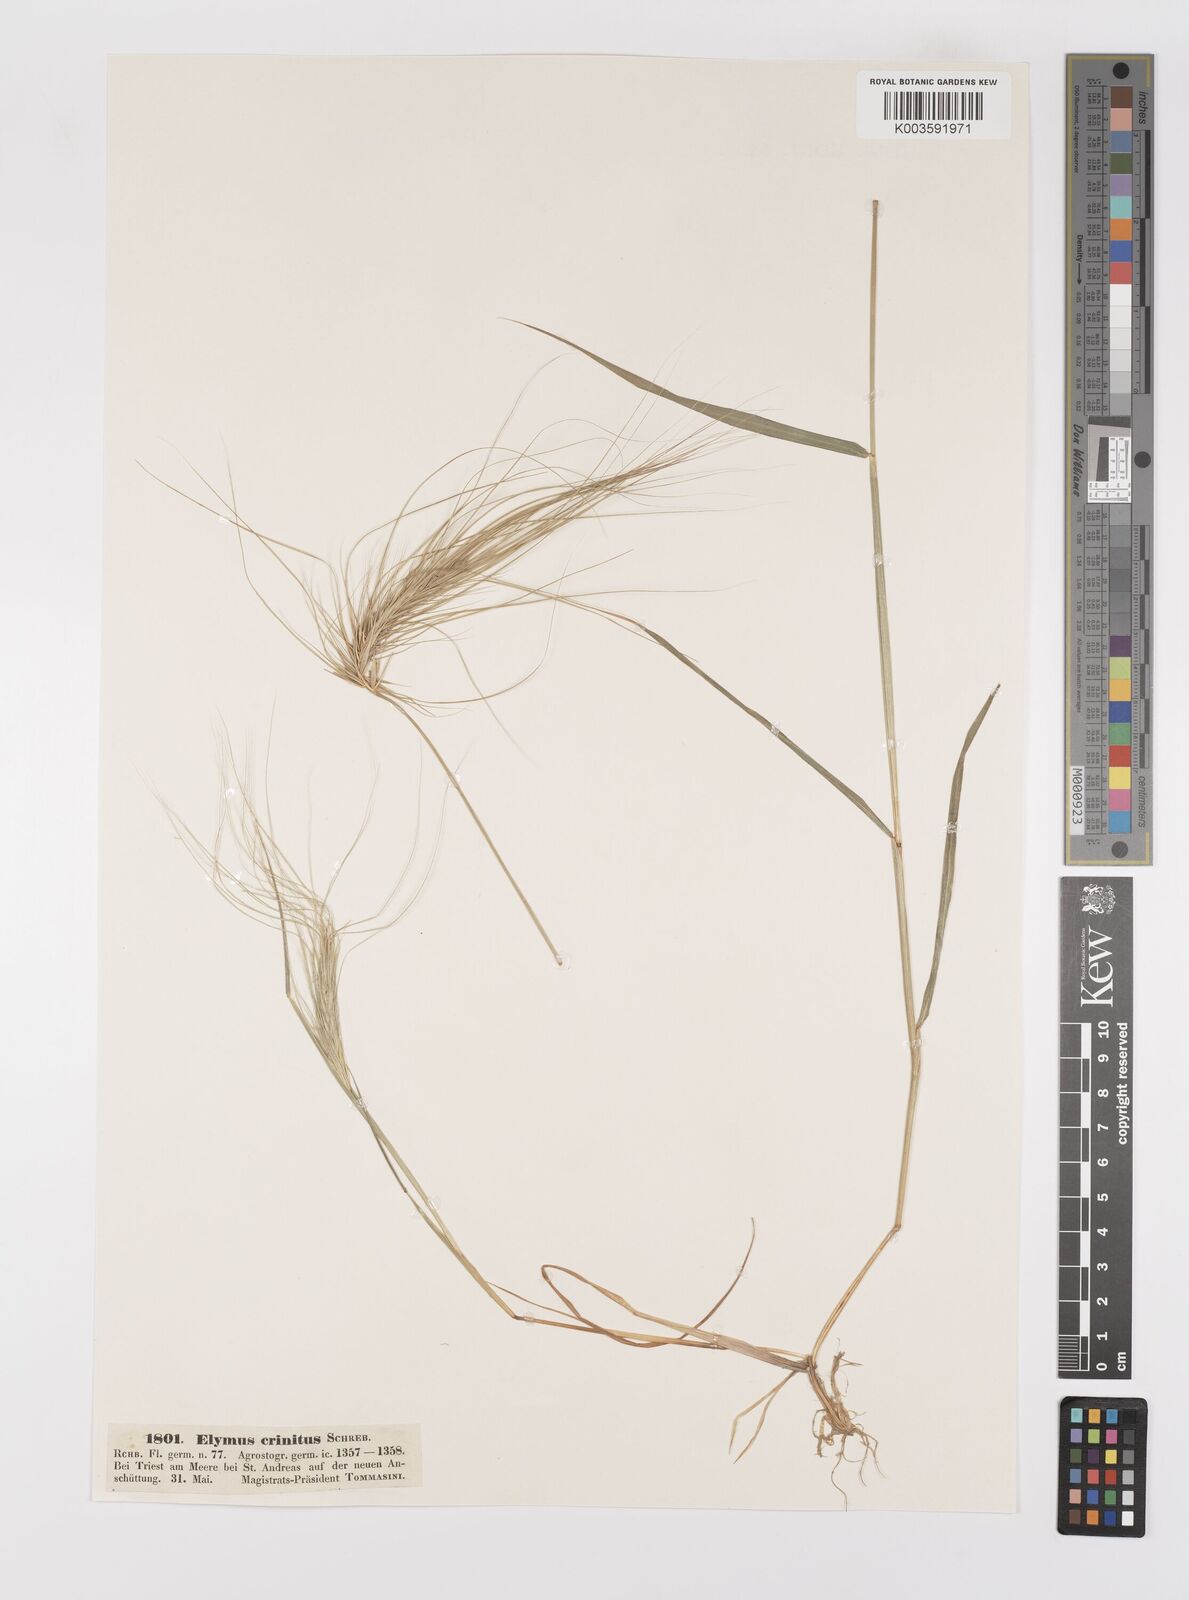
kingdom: Plantae
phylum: Tracheophyta
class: Liliopsida
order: Poales
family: Poaceae
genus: Taeniatherum
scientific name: Taeniatherum caput-medusae
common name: Medusahead
